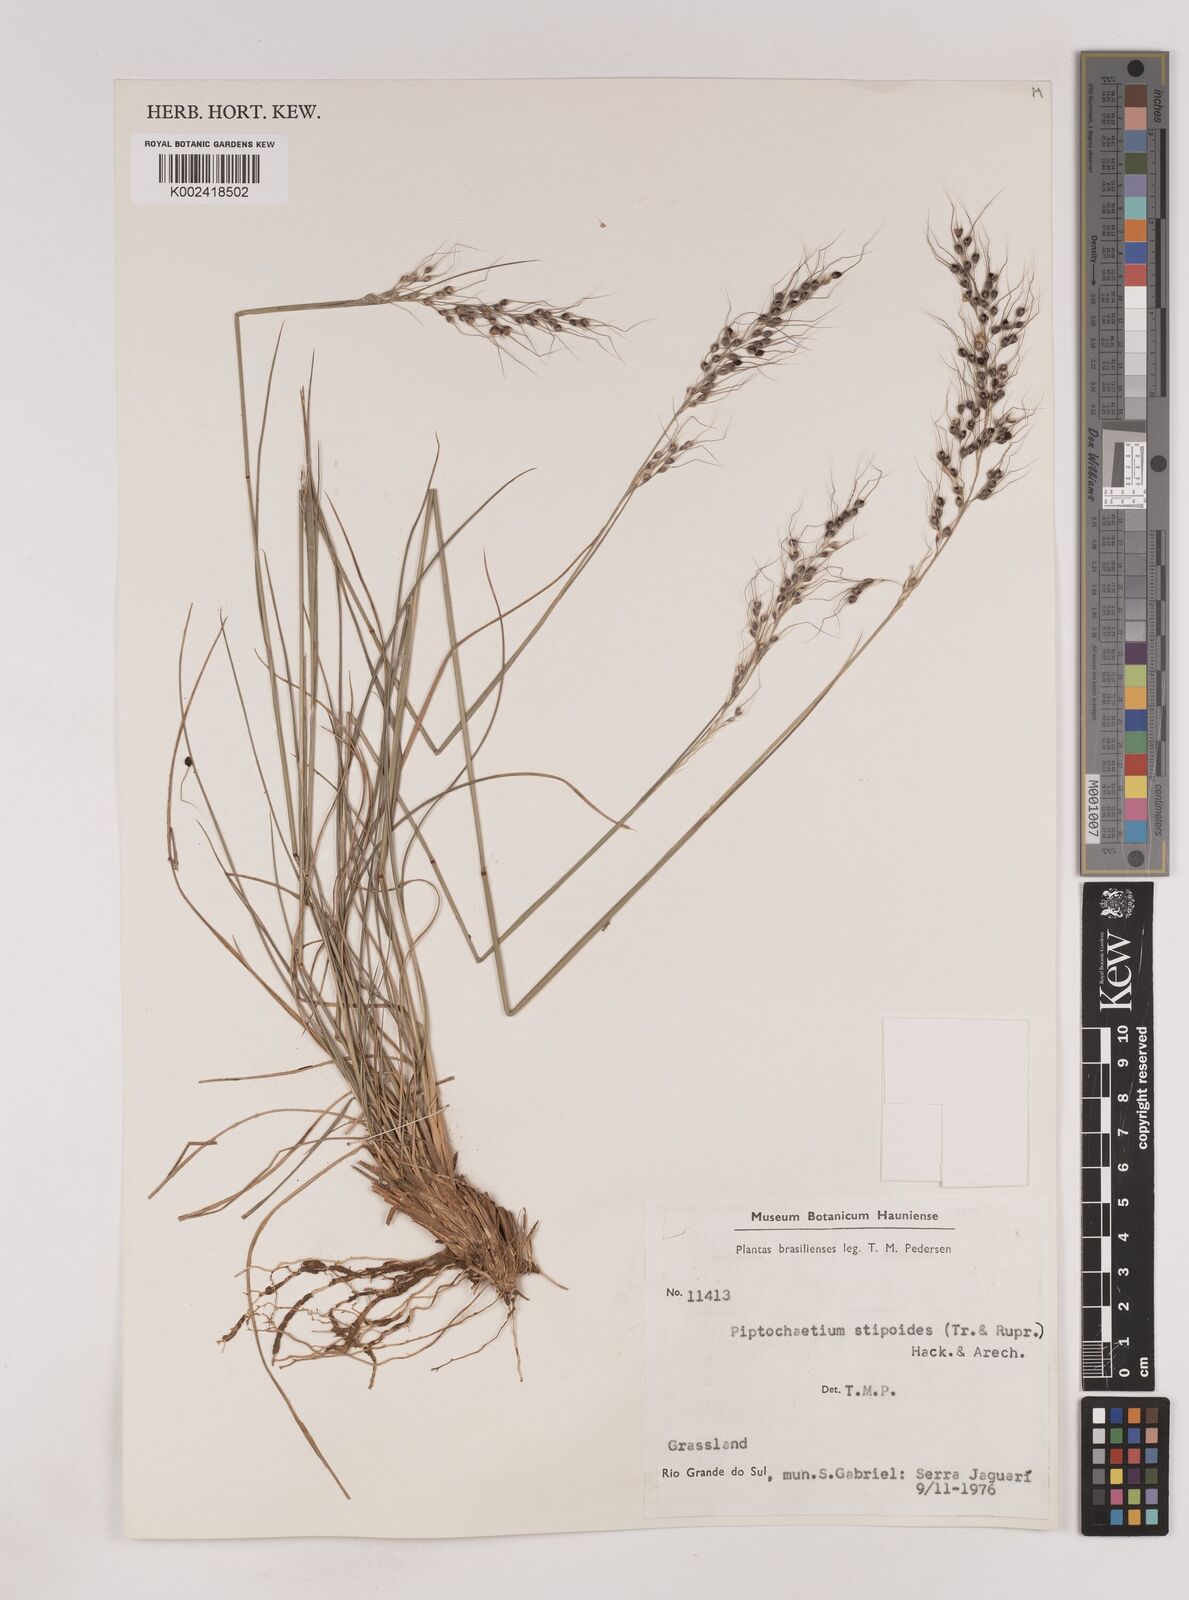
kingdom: Plantae
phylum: Tracheophyta
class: Liliopsida
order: Poales
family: Poaceae
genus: Piptochaetium
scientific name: Piptochaetium stipoides
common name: Purple speargrass
